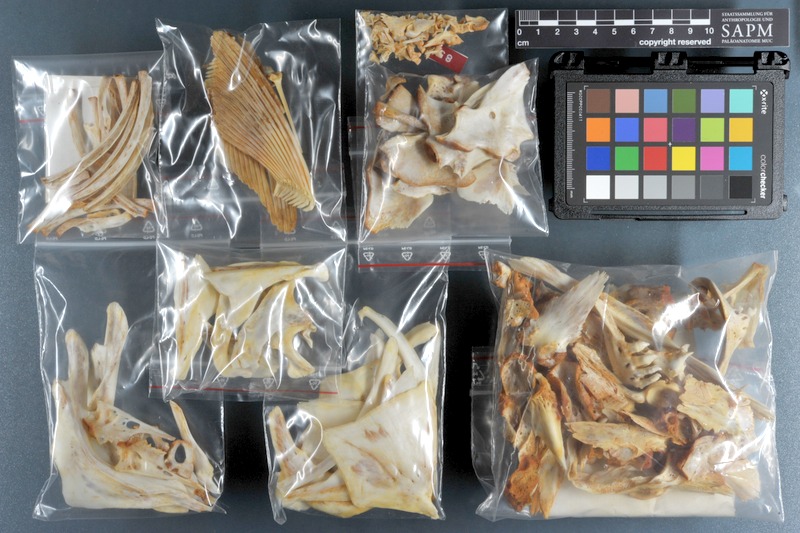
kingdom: Animalia
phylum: Chordata
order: Cypriniformes
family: Cyprinidae
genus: Luciobarbus
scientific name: Luciobarbus esocinus
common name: Pike barbel
